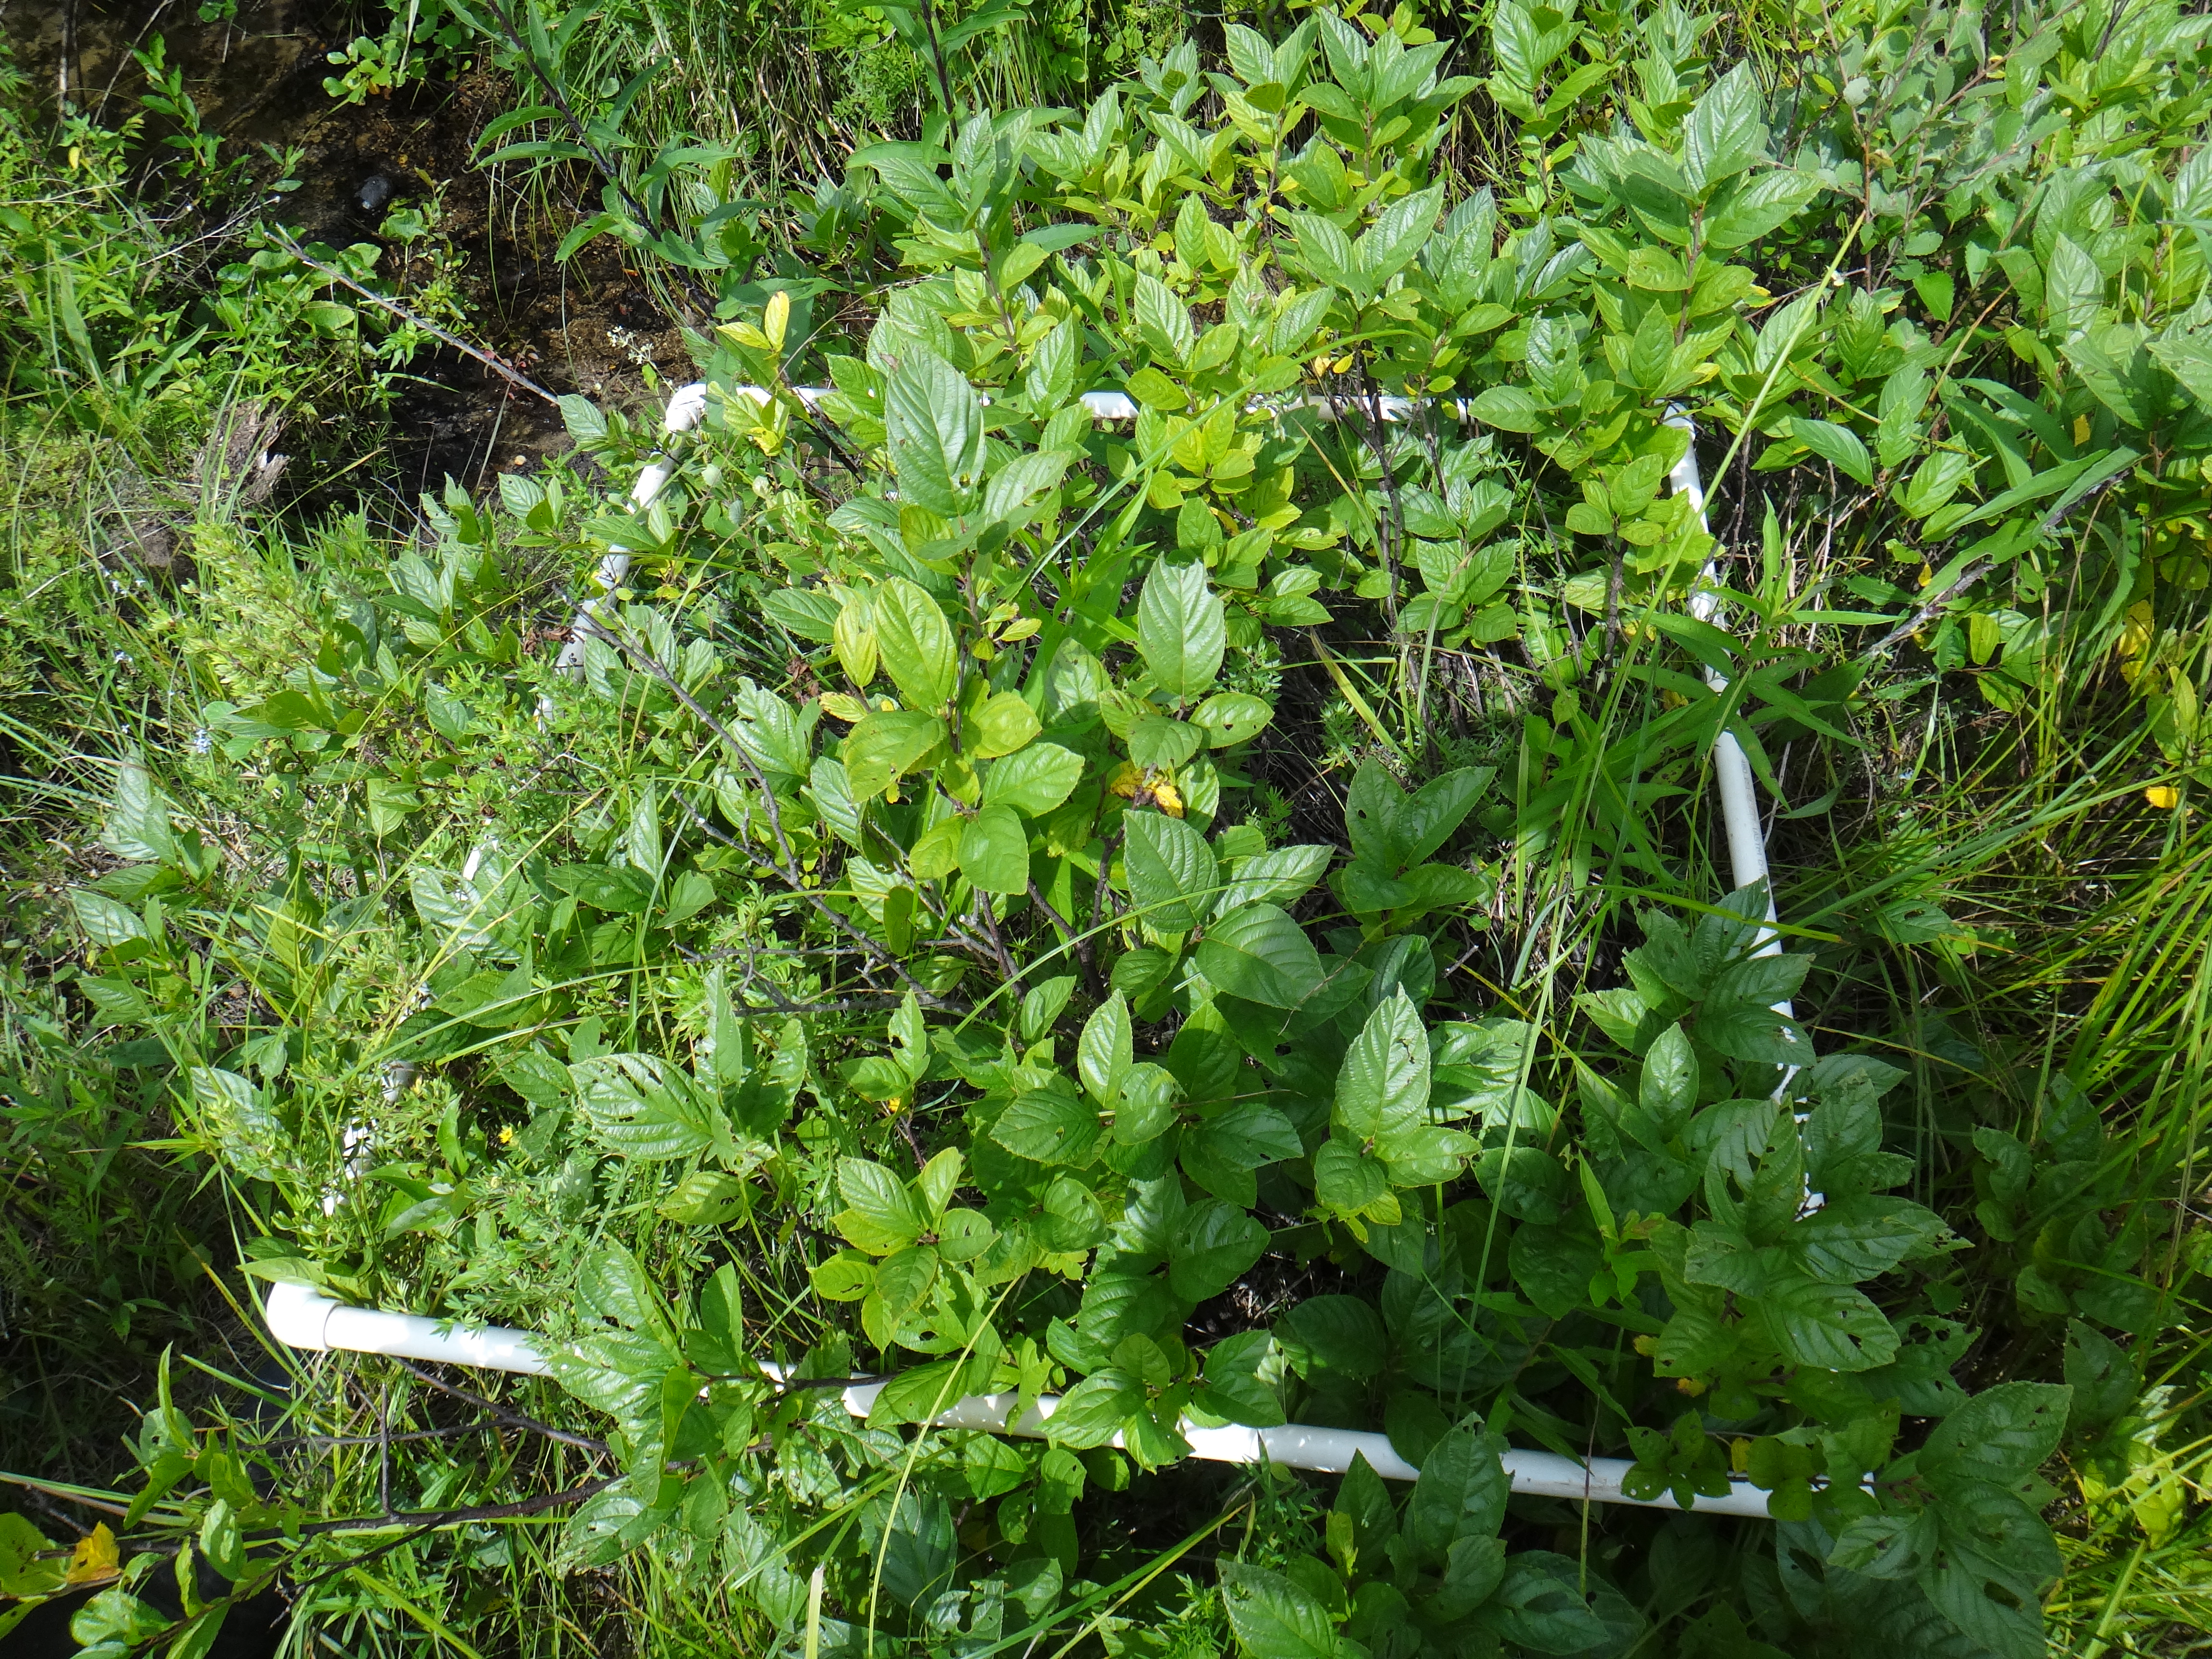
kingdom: Plantae
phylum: Tracheophyta
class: Liliopsida
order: Poales
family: Cyperaceae
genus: Carex
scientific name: Carex stricta
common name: Hummock sedge
